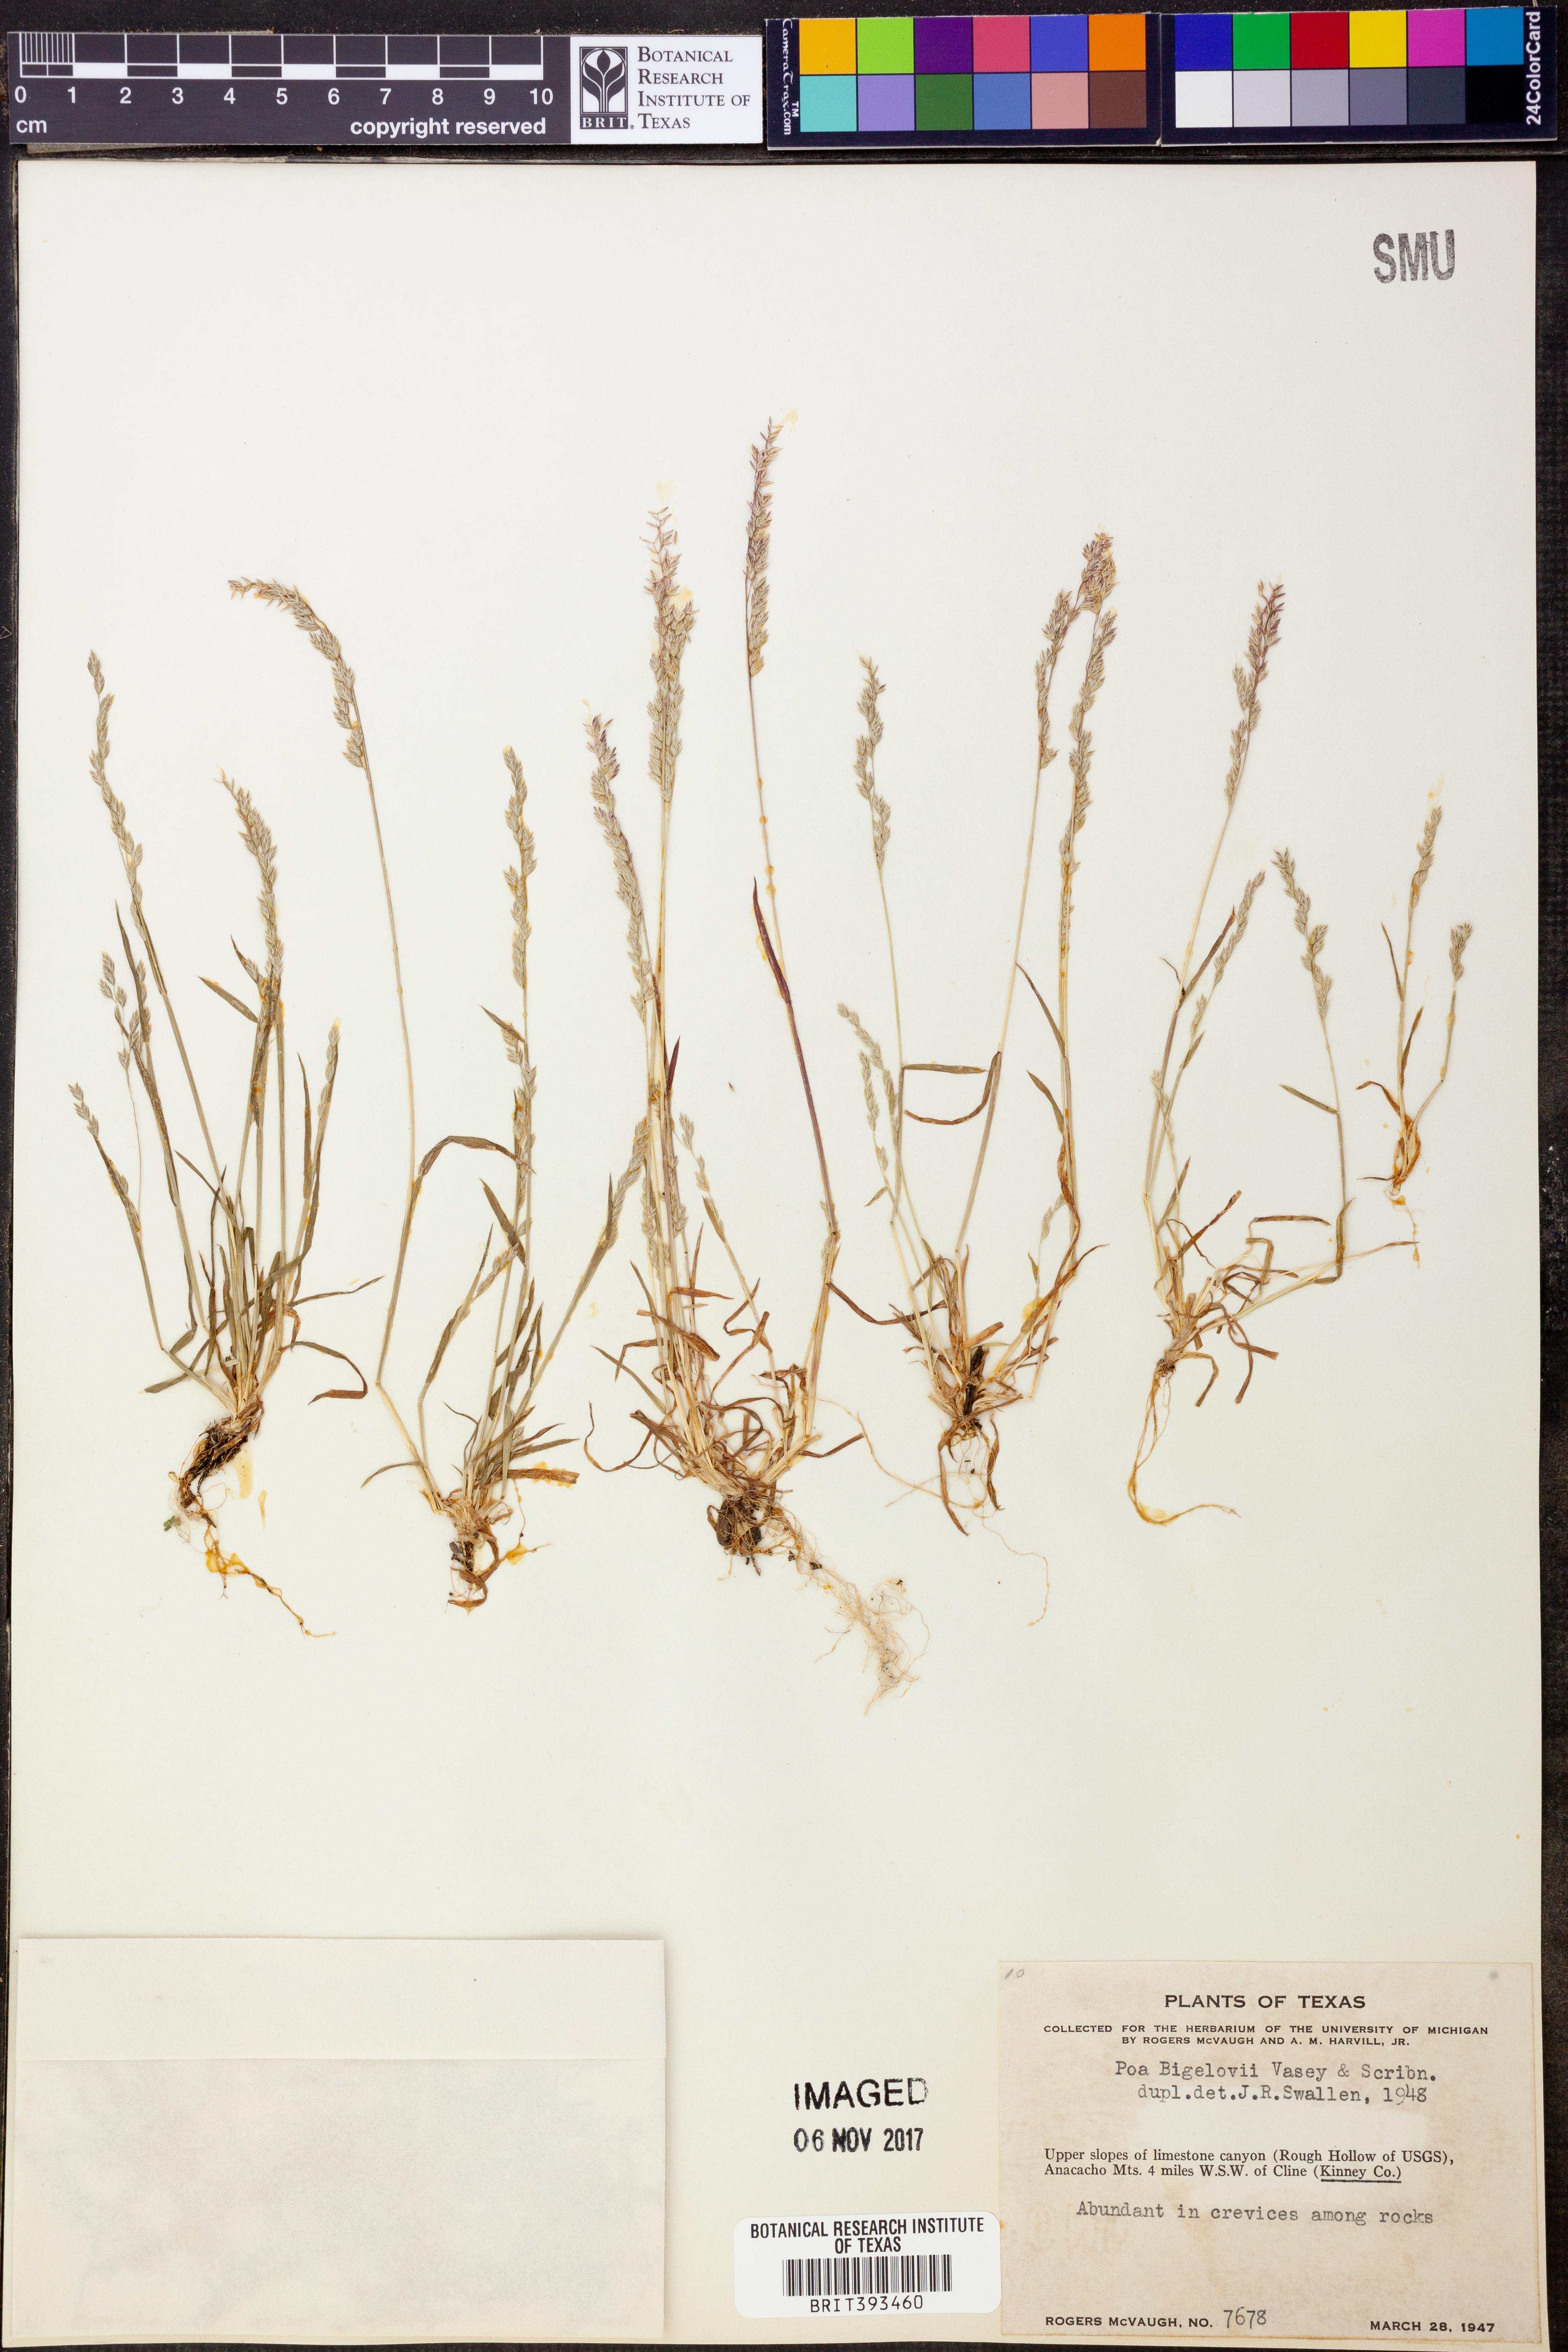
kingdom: Plantae
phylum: Tracheophyta
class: Liliopsida
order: Poales
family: Poaceae
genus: Poa
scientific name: Poa bigelovii
